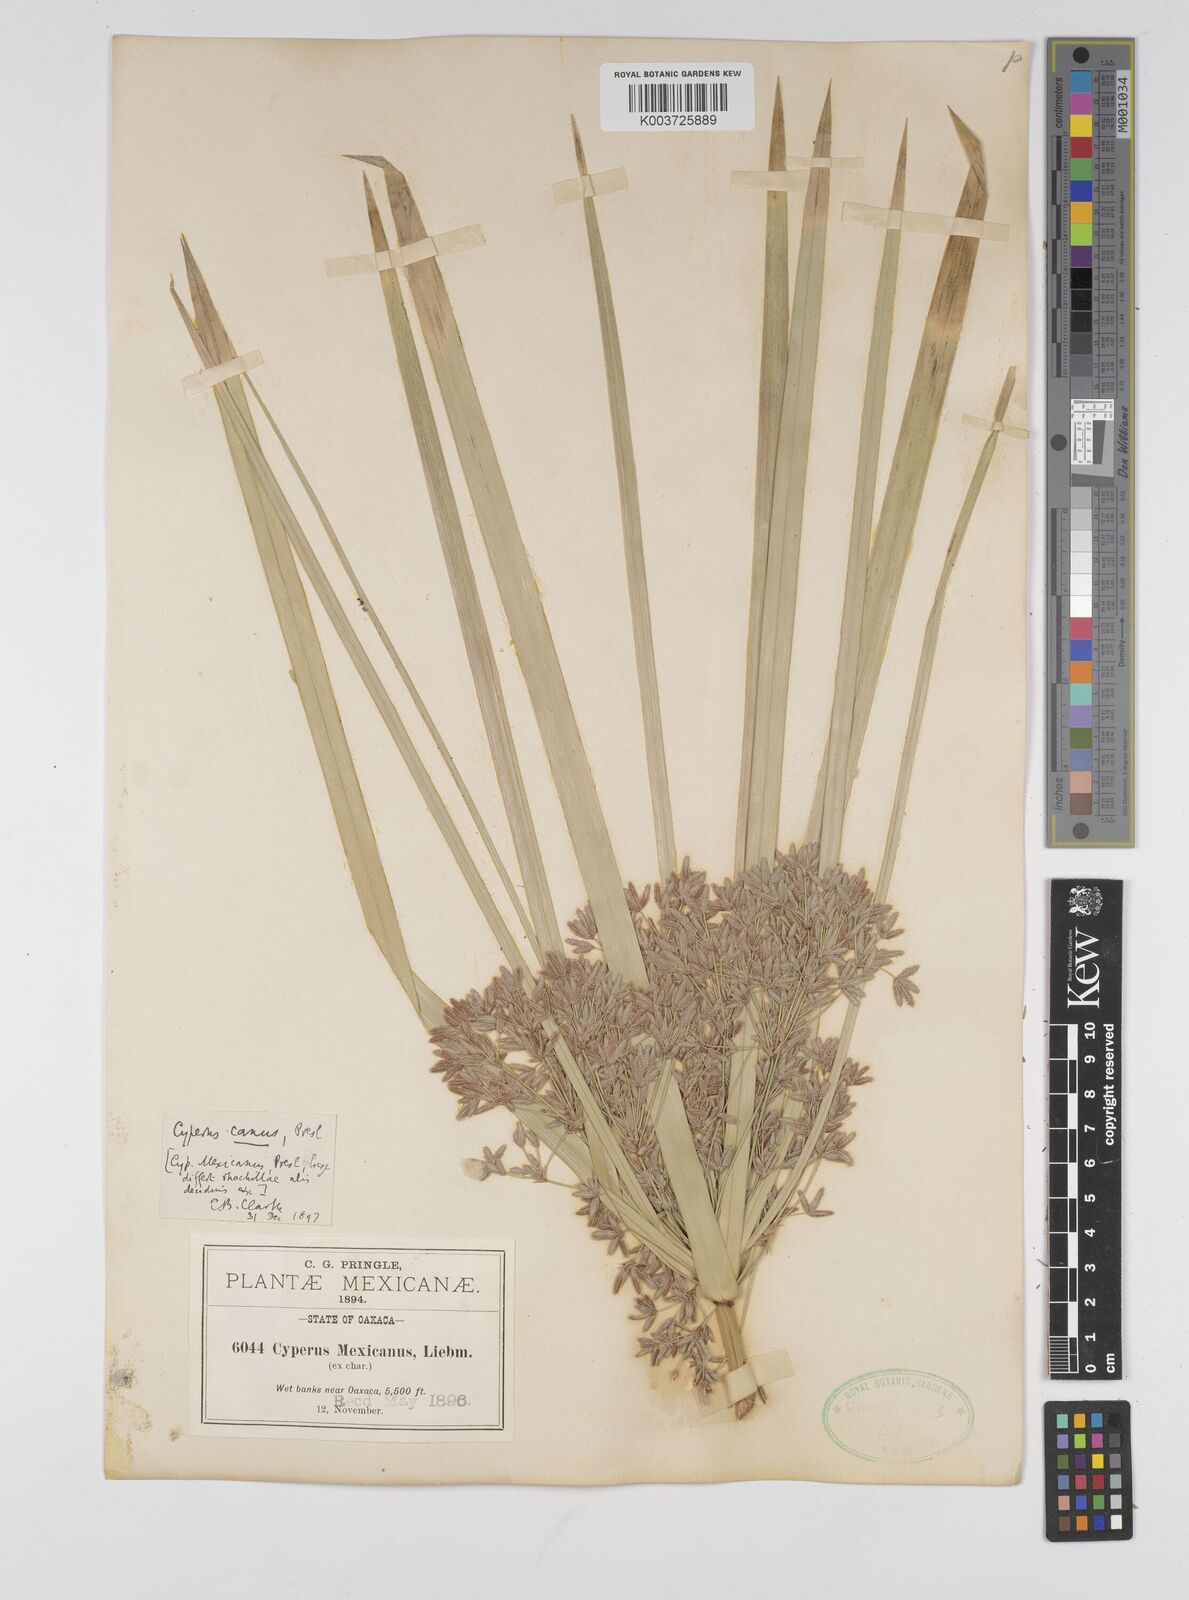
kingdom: Plantae
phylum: Tracheophyta
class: Liliopsida
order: Poales
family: Cyperaceae
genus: Cyperus
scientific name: Cyperus canus
